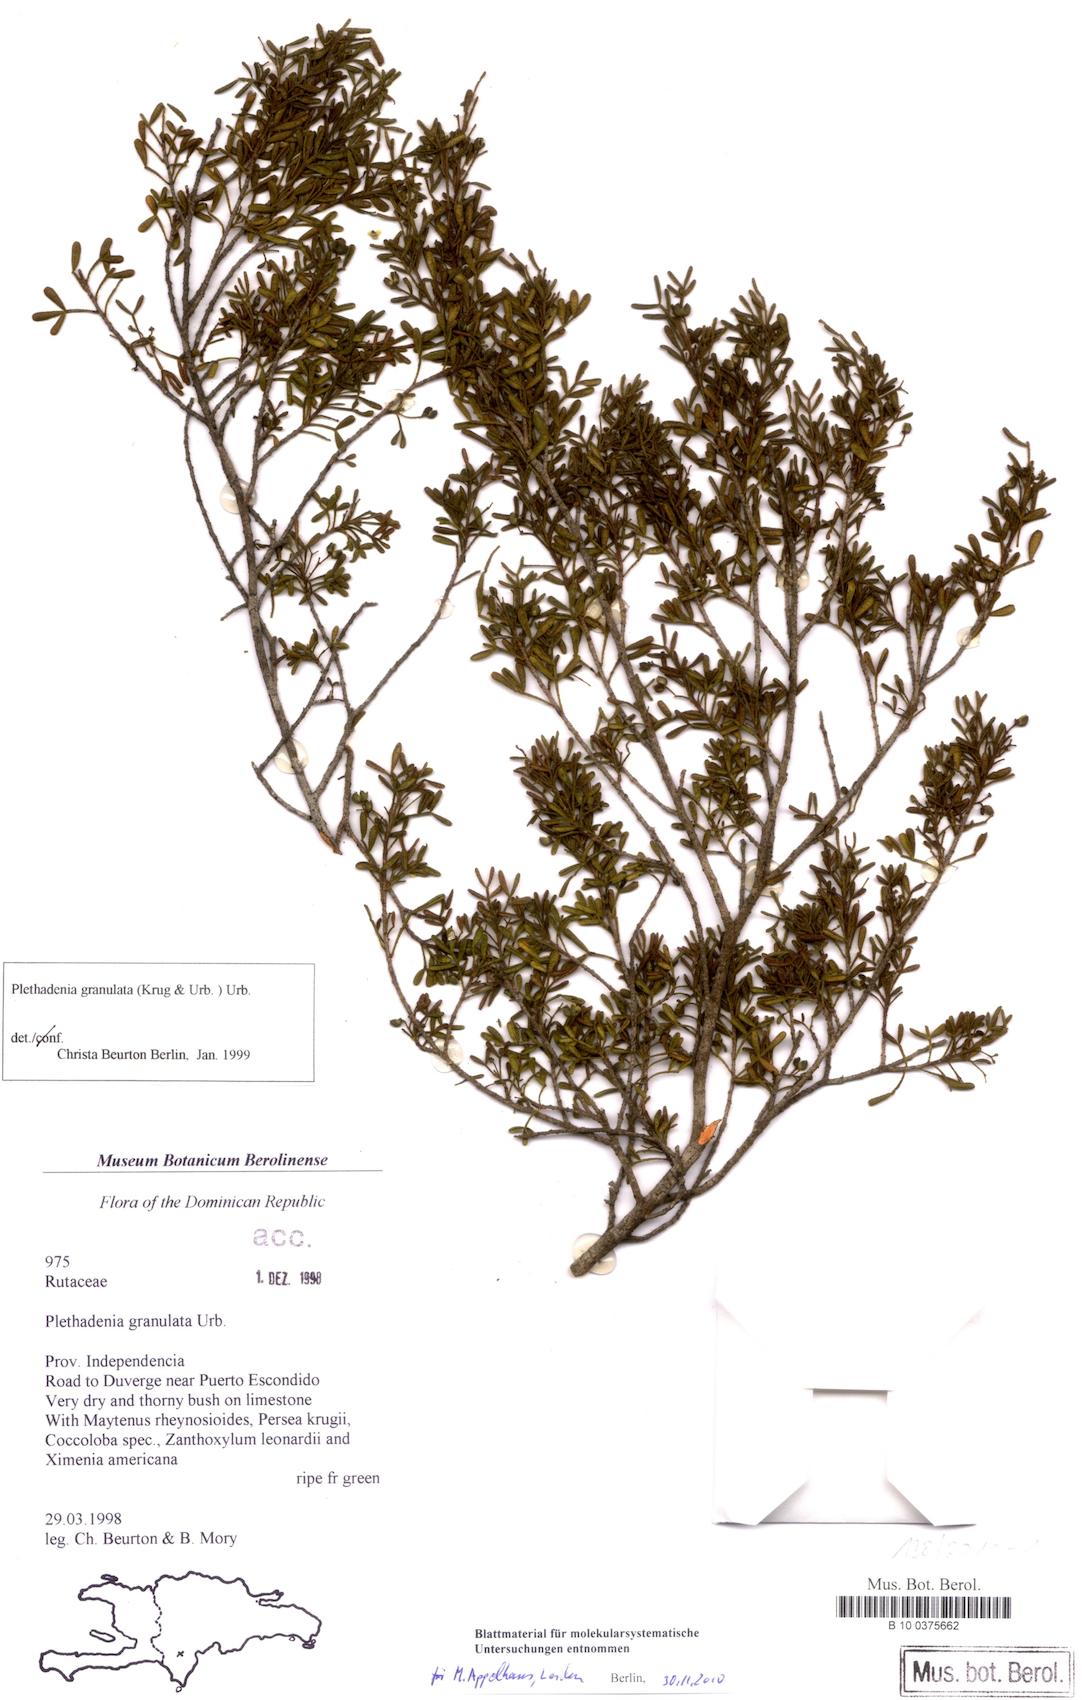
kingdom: Plantae
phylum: Tracheophyta
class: Magnoliopsida
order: Sapindales
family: Rutaceae
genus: Plethadenia
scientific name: Plethadenia granulata
